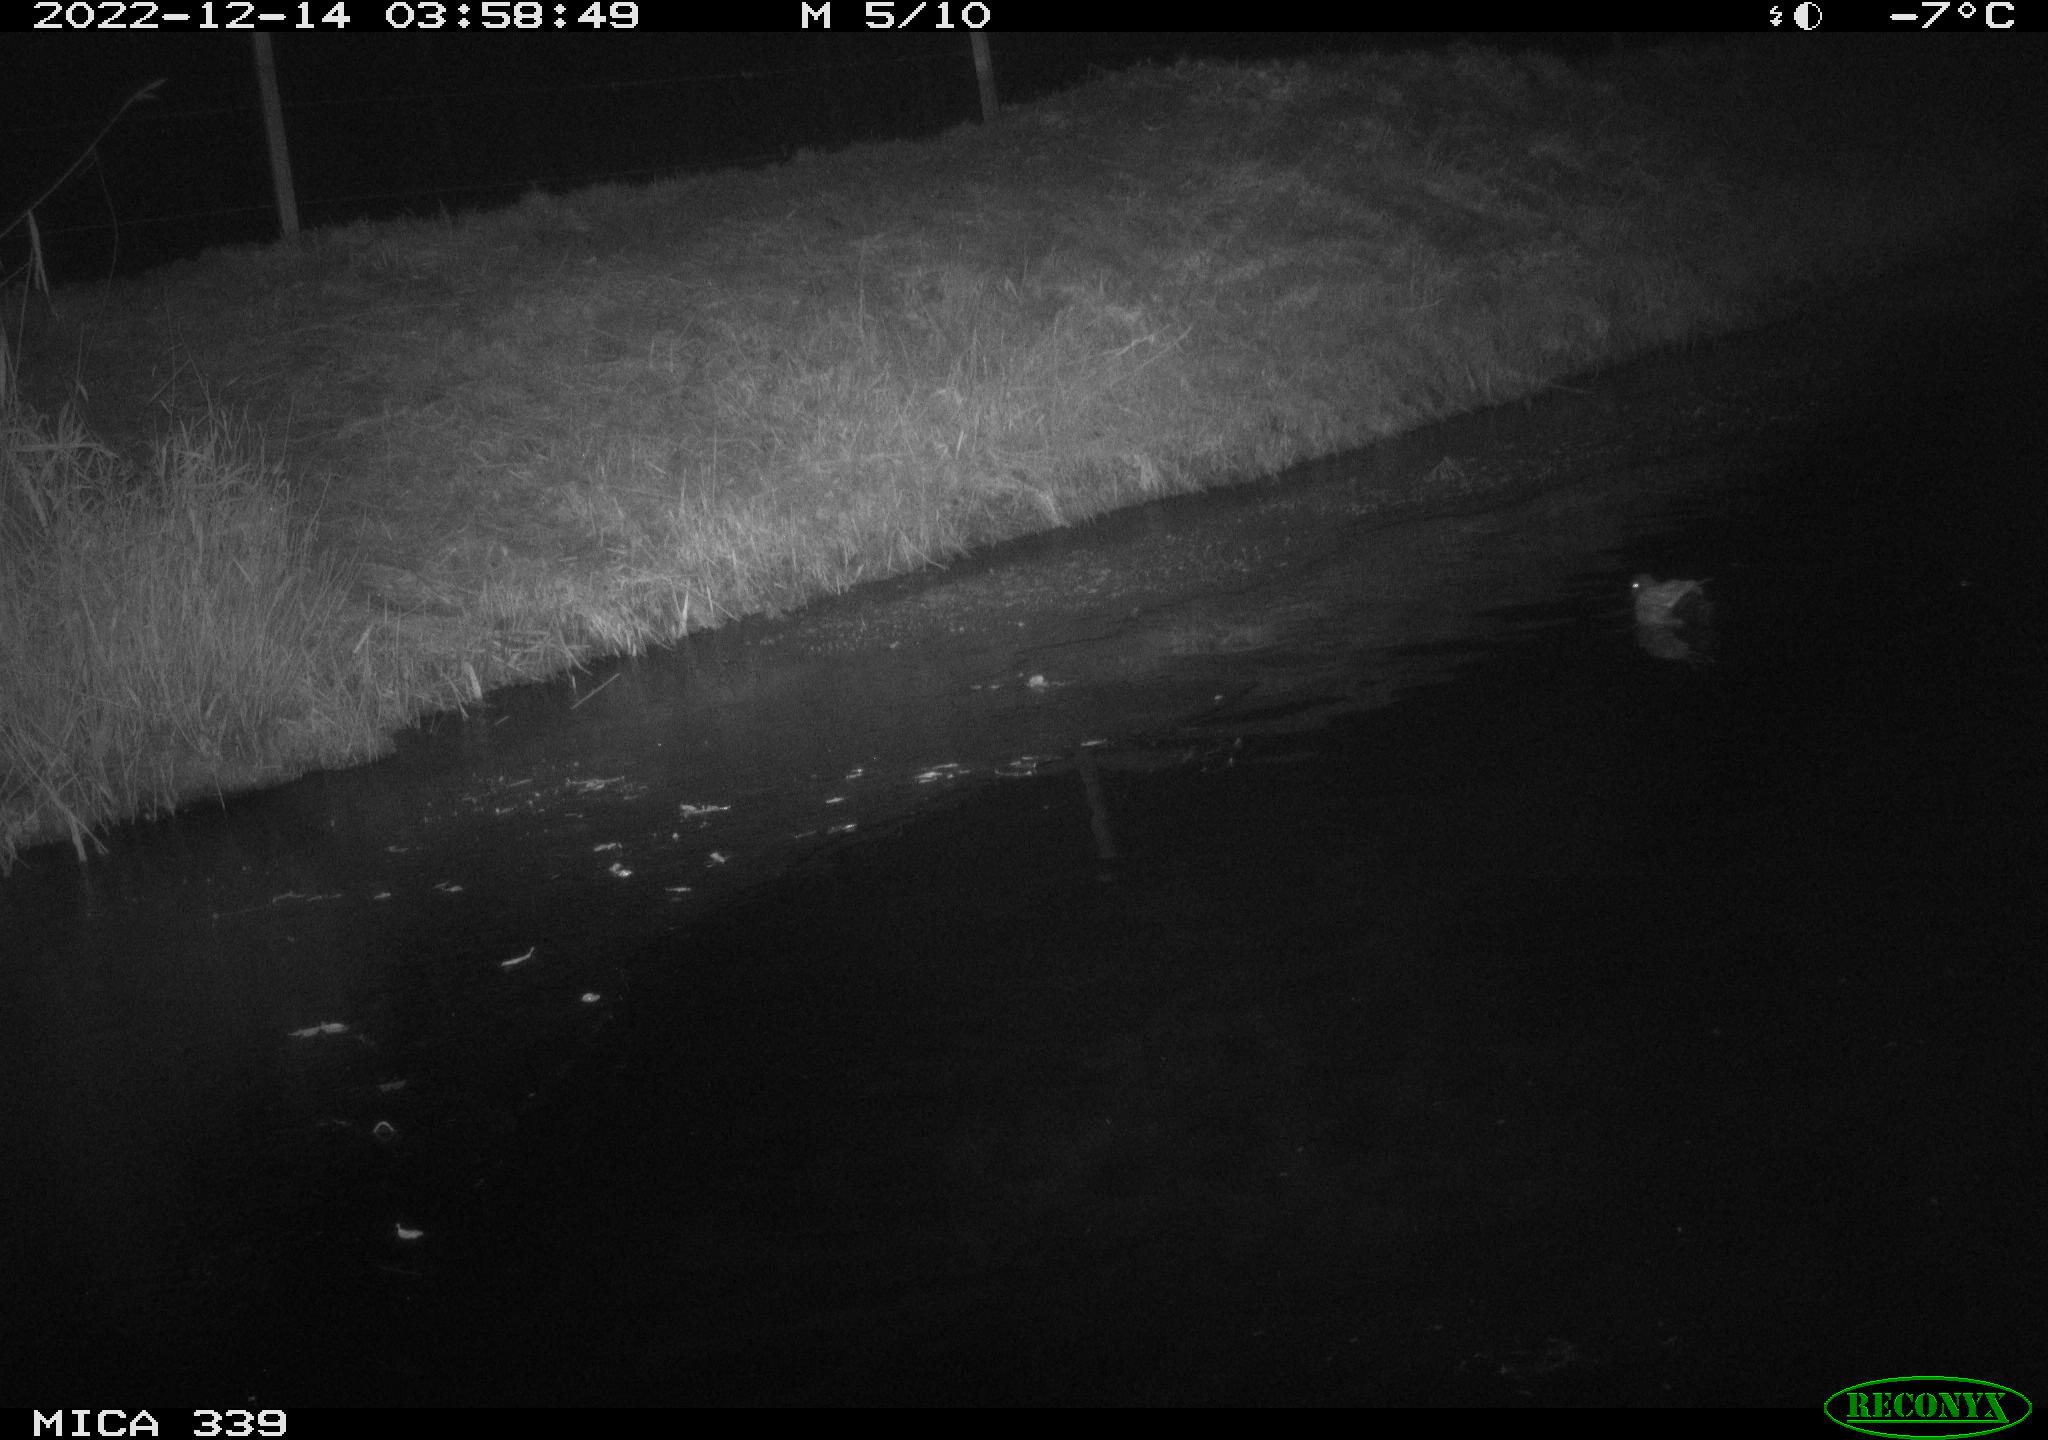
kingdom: Animalia
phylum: Chordata
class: Aves
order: Anseriformes
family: Anatidae
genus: Anas
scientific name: Anas
